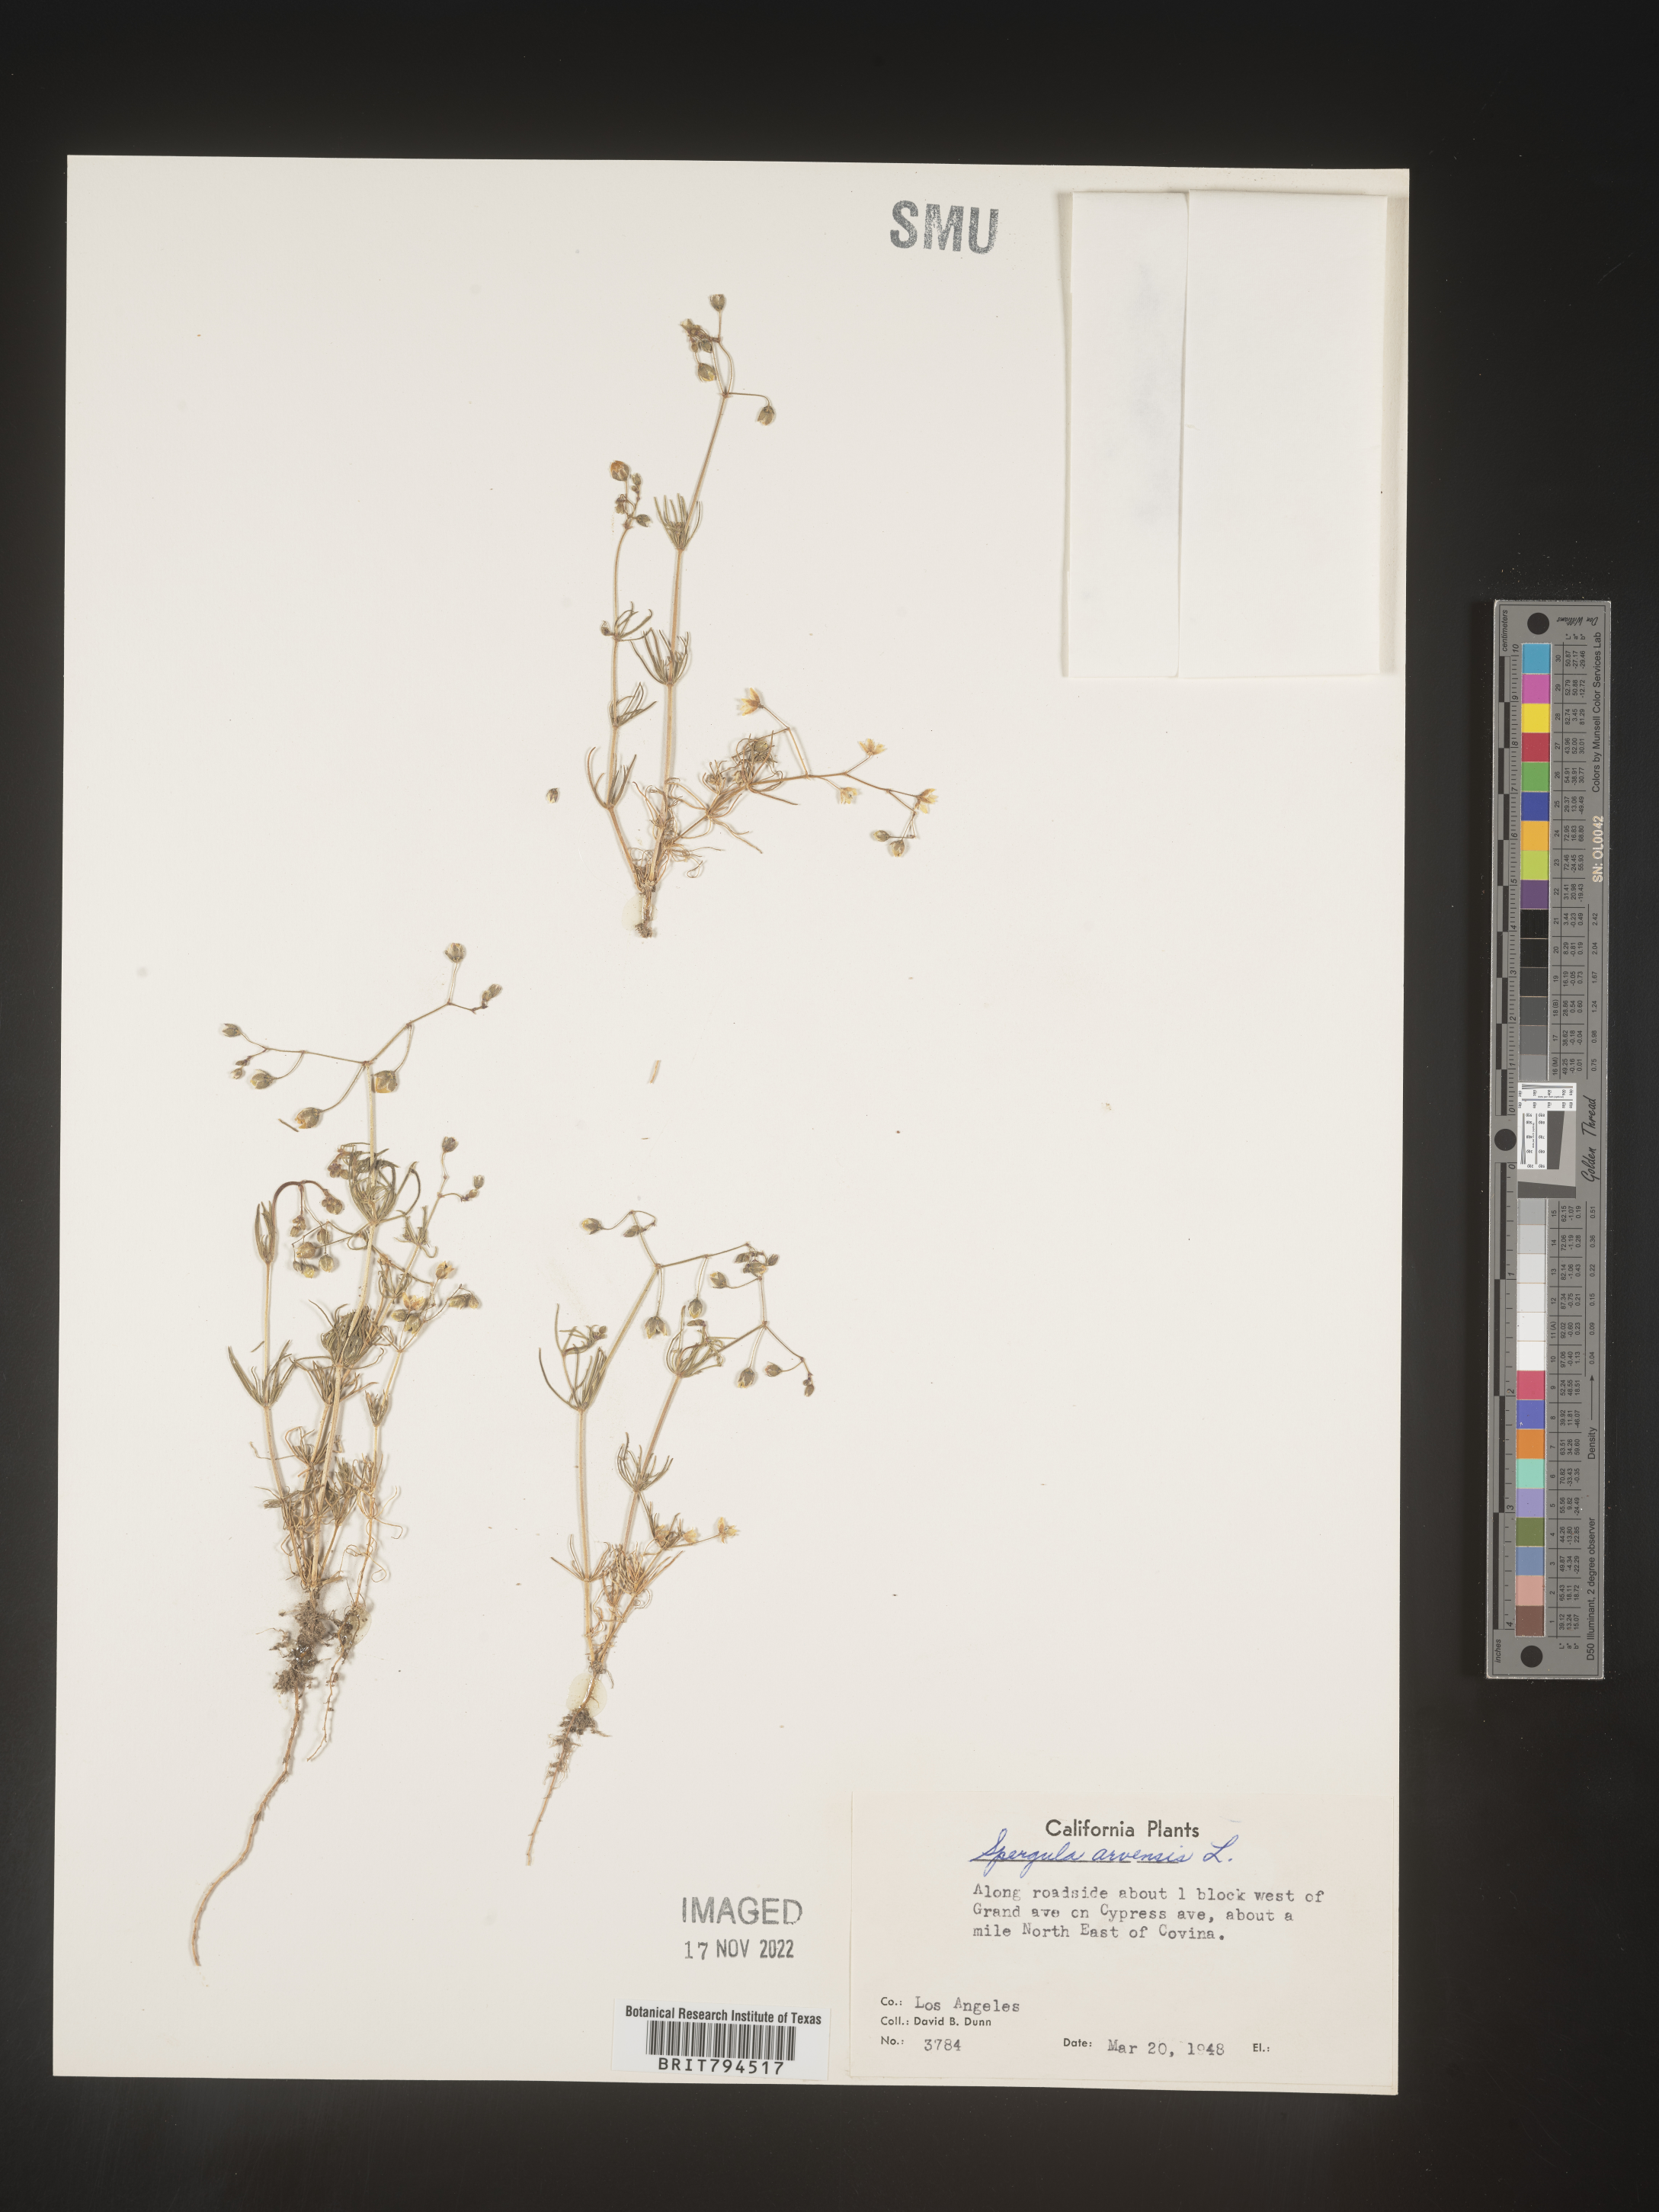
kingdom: Plantae
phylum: Tracheophyta
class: Magnoliopsida
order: Caryophyllales
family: Caryophyllaceae
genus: Spergula
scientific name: Spergula arvensis
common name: Corn spurrey
